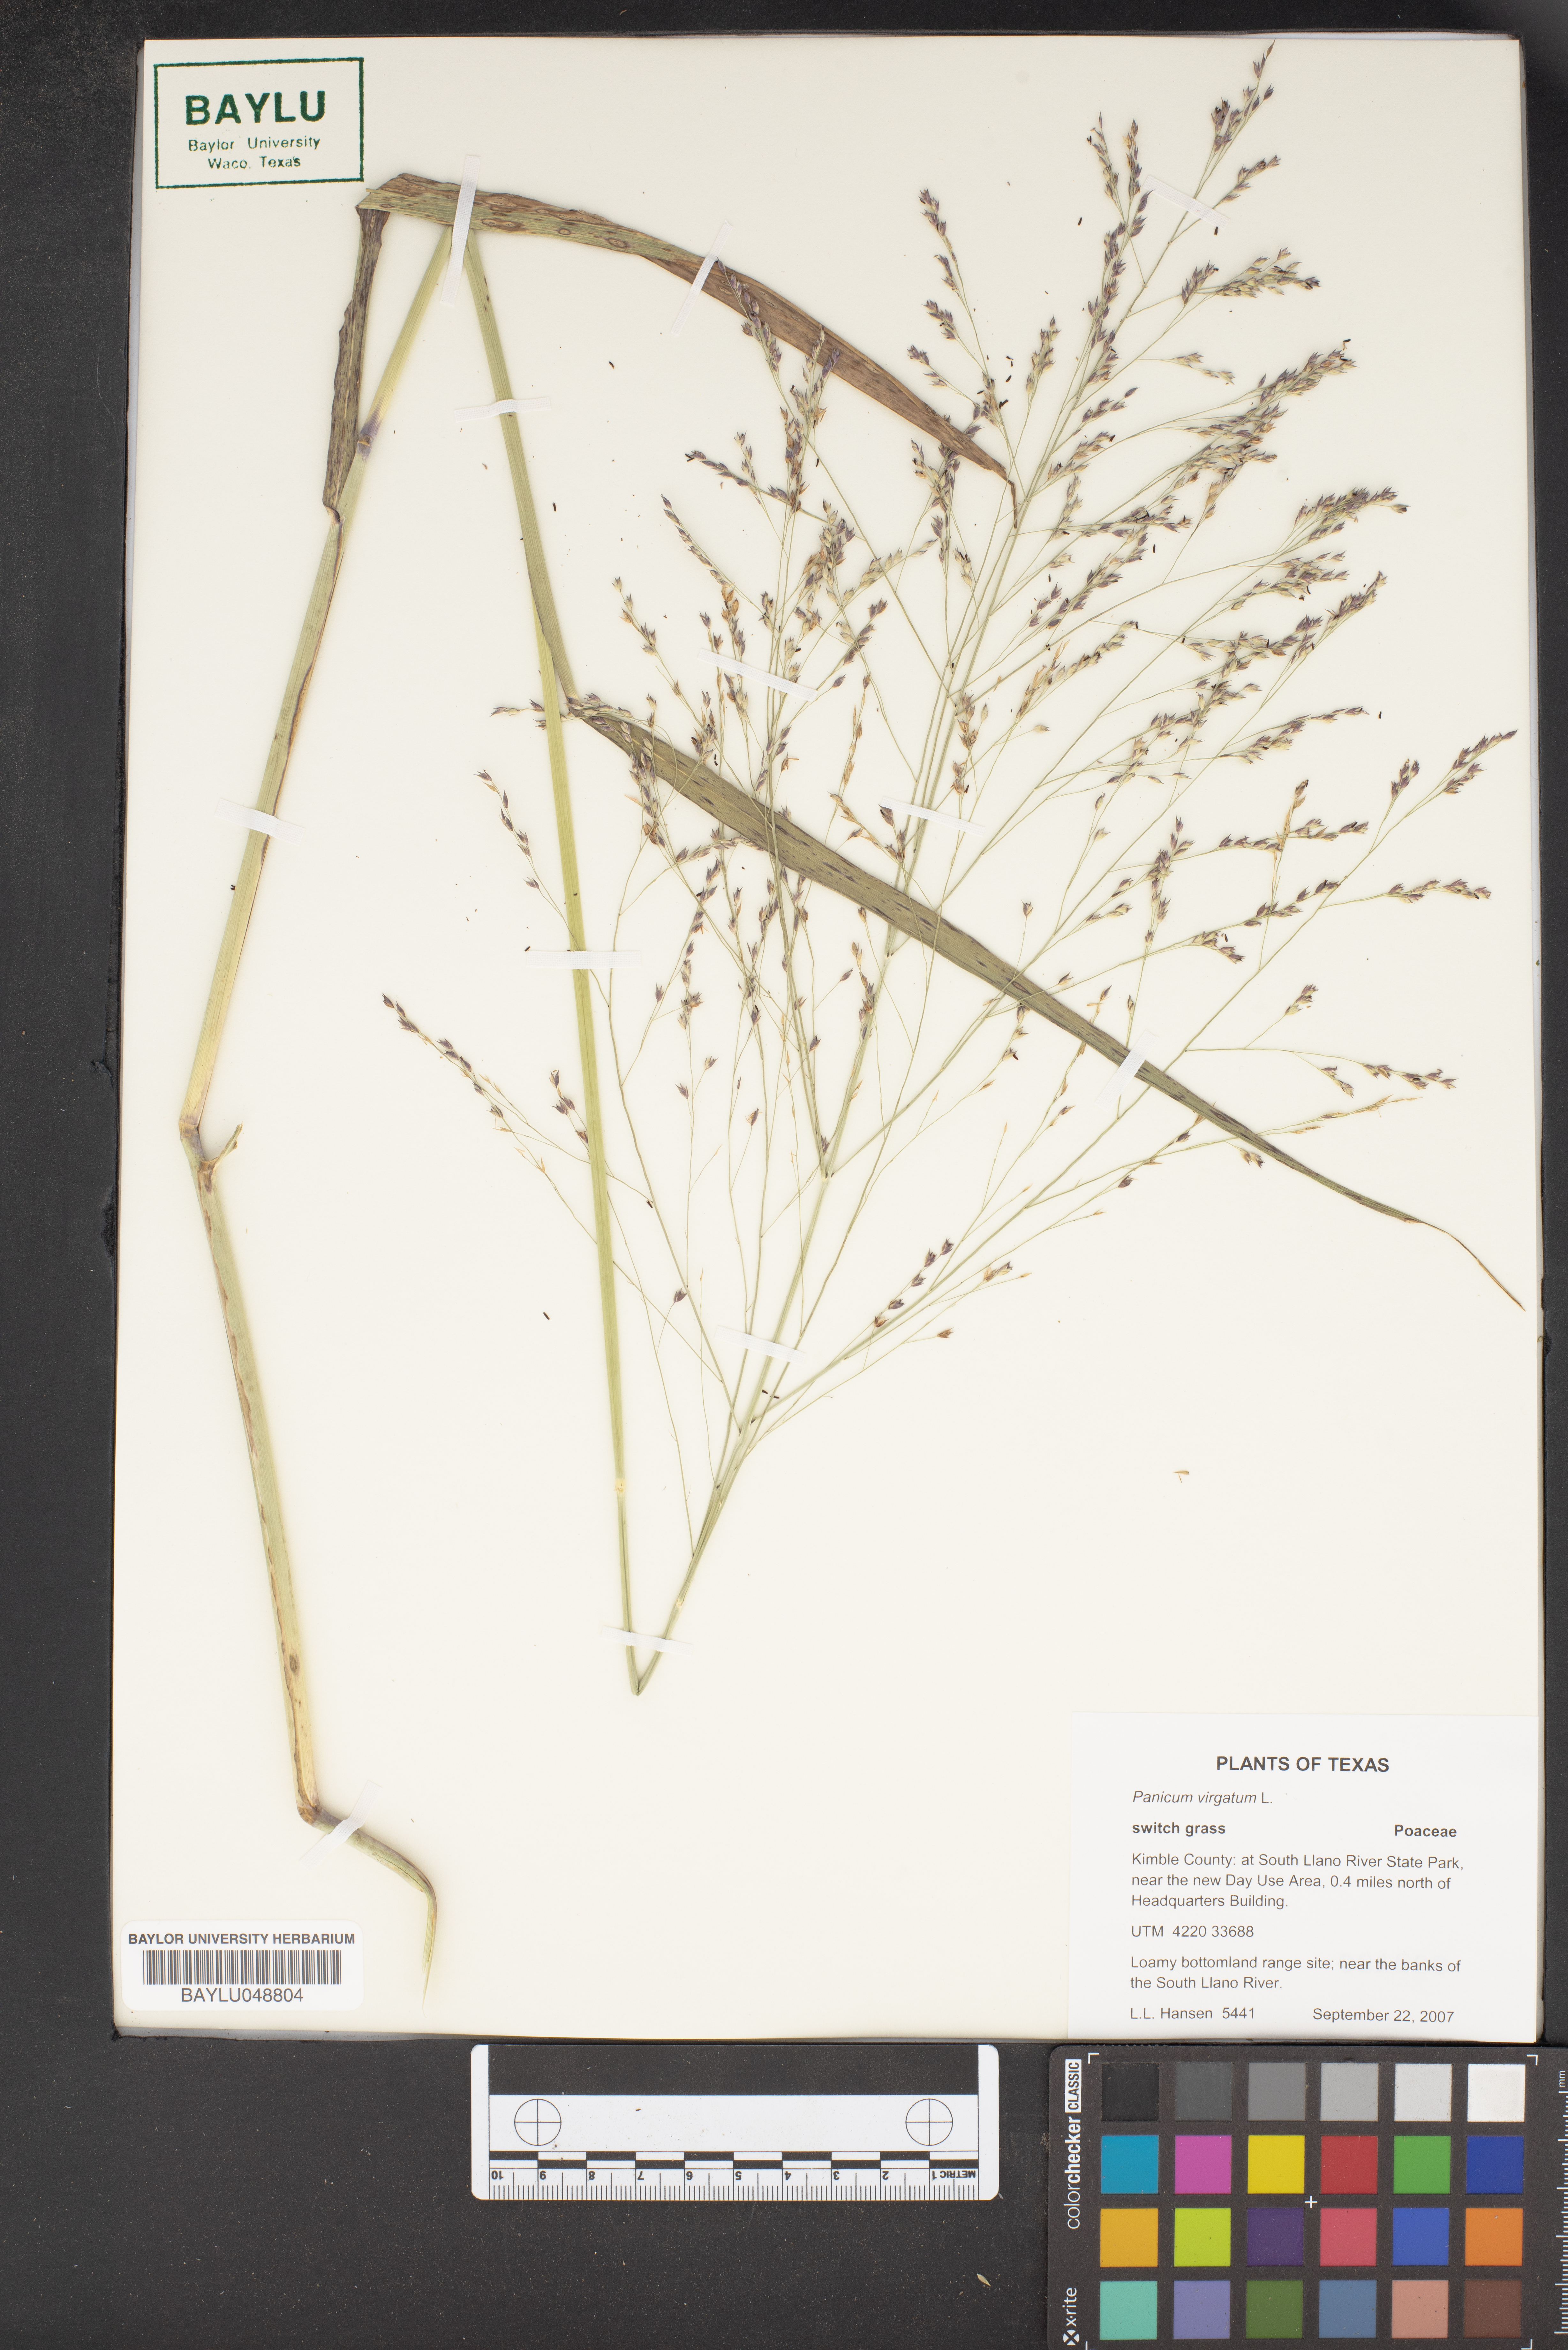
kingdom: Plantae
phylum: Tracheophyta
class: Liliopsida
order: Poales
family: Poaceae
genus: Panicum
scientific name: Panicum virgatum
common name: Switchgrass
